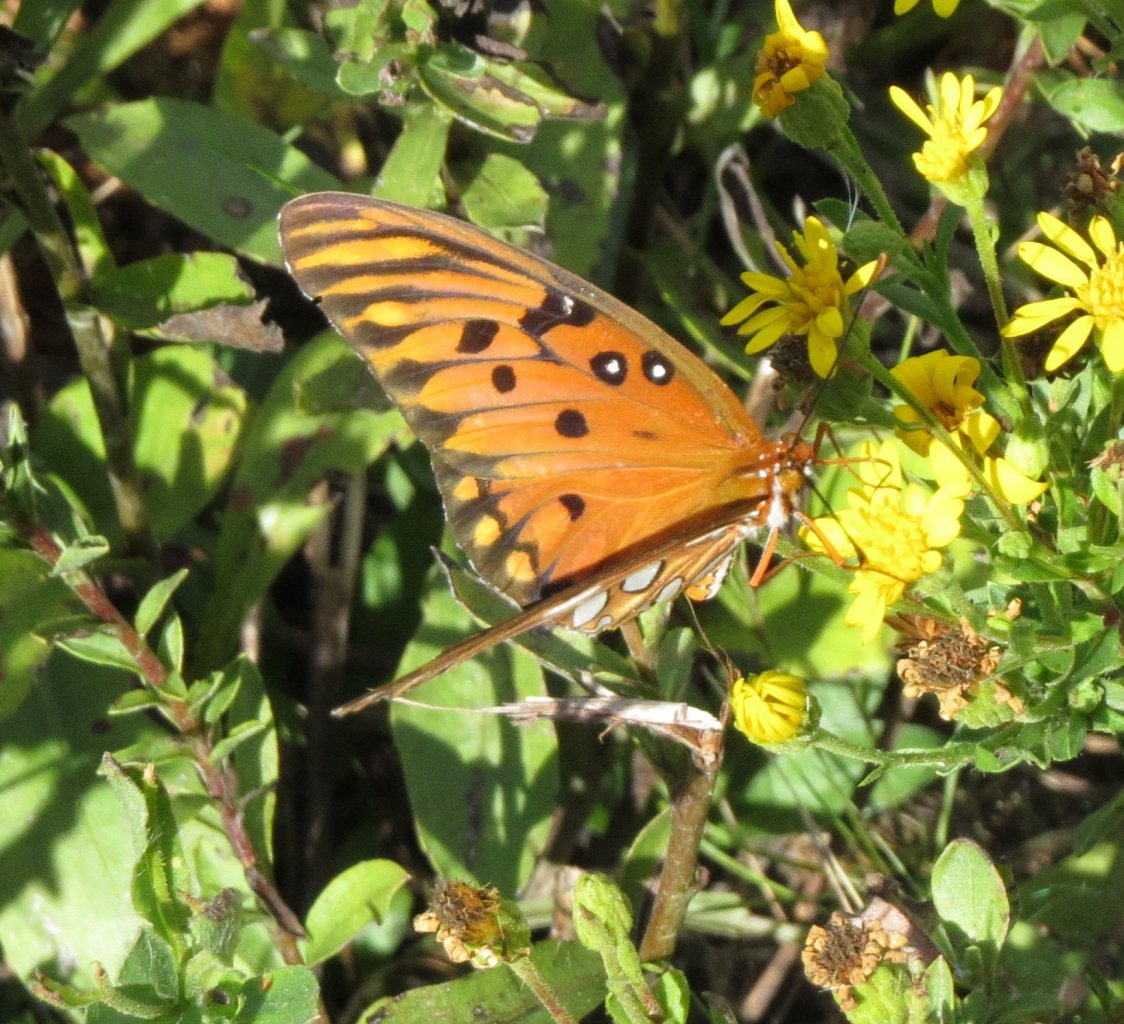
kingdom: Animalia
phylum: Arthropoda
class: Insecta
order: Lepidoptera
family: Nymphalidae
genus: Dione
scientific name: Dione vanillae
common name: Gulf Fritillary
